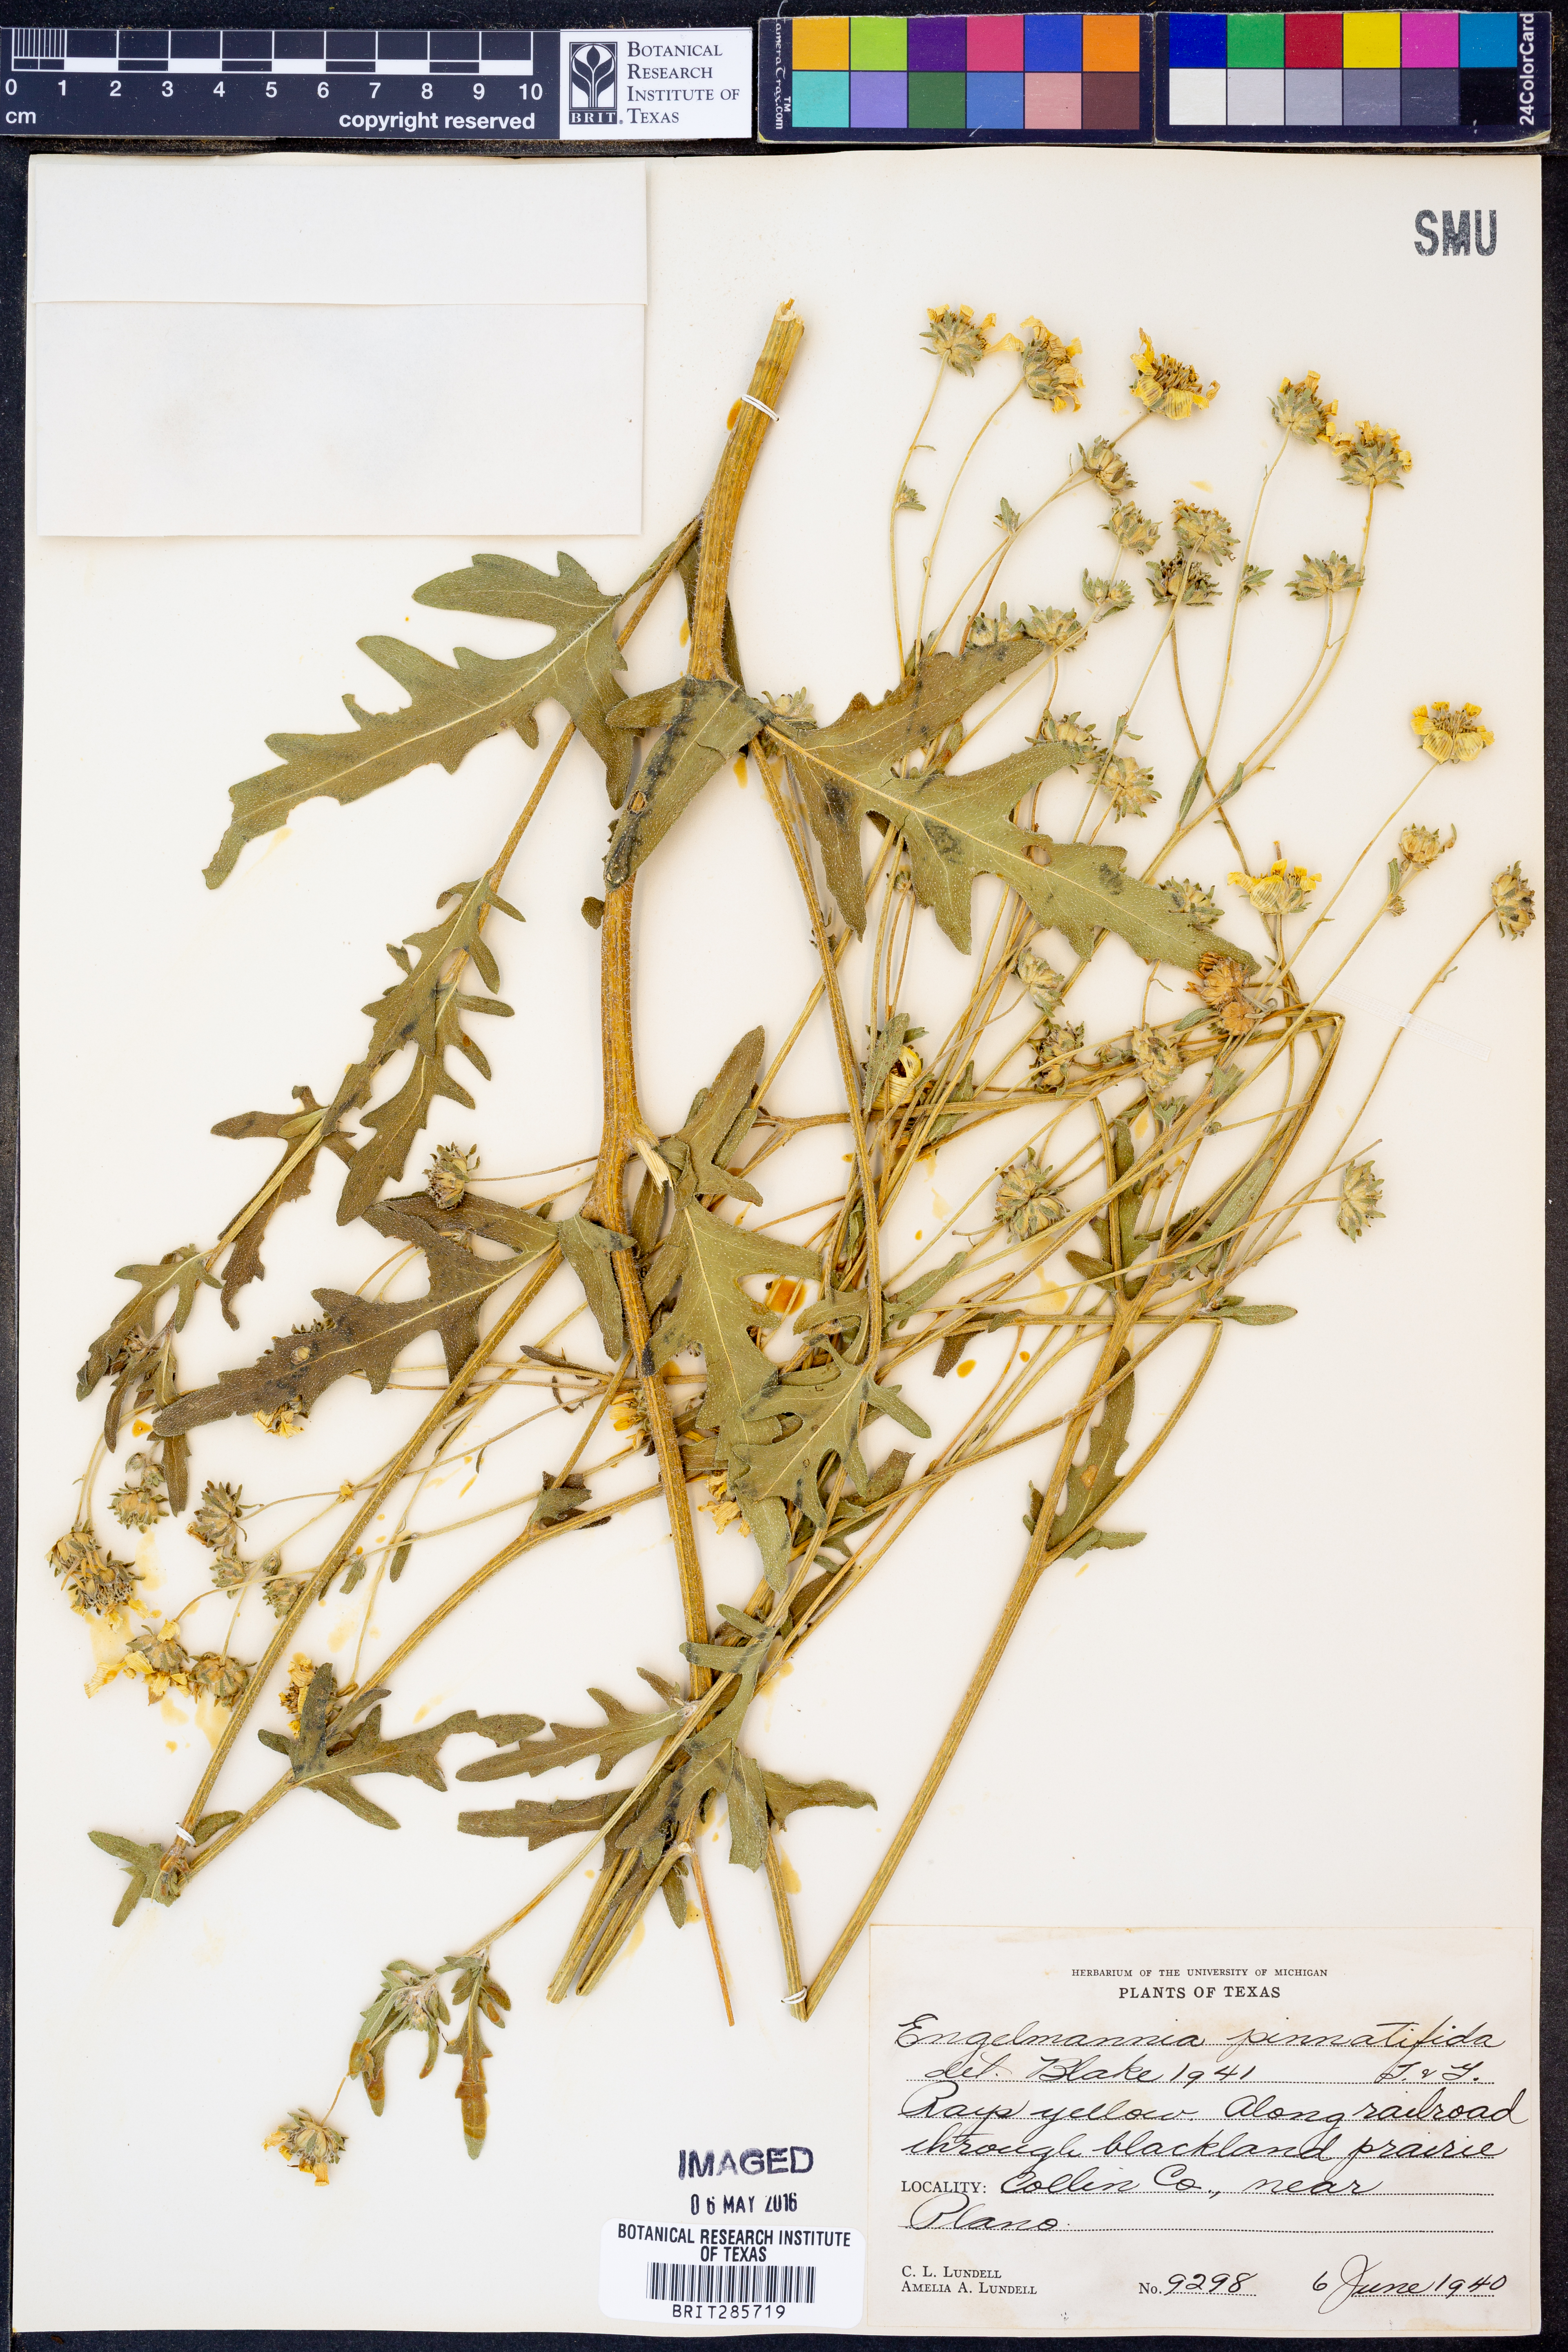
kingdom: Plantae
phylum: Tracheophyta
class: Magnoliopsida
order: Asterales
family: Asteraceae
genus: Engelmannia
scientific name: Engelmannia peristenia
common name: Engelmann's daisy
